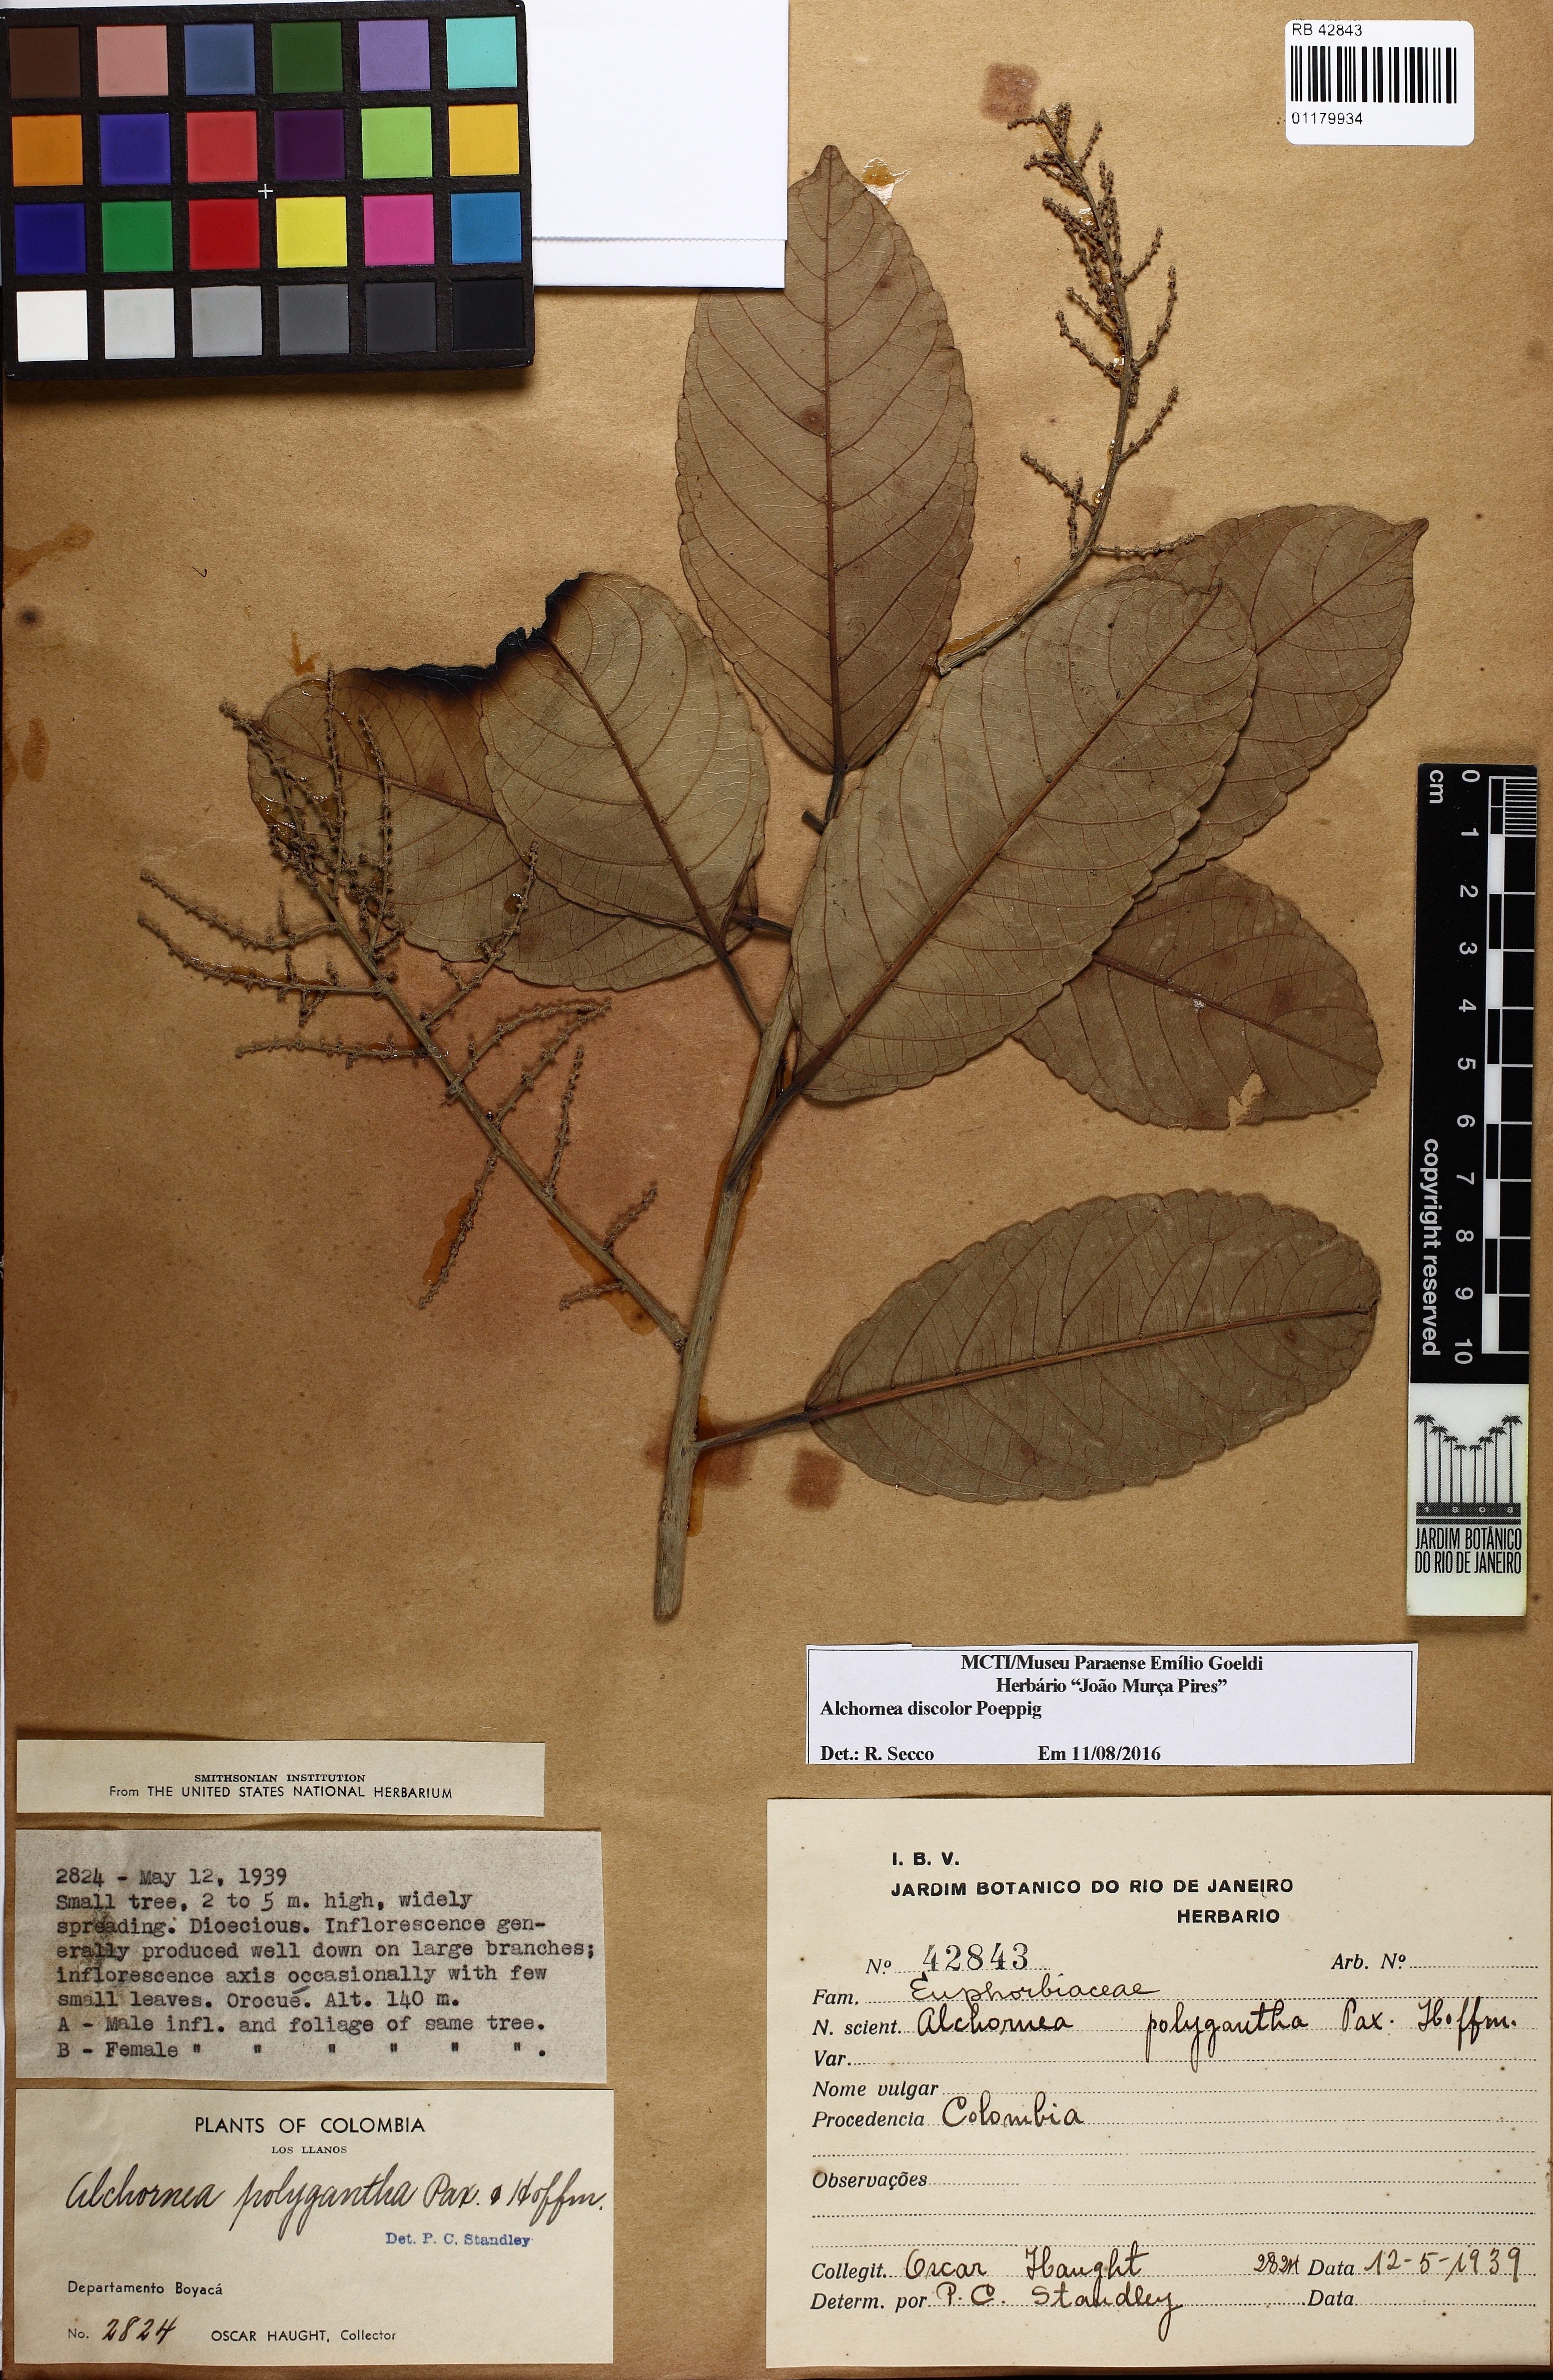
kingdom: Plantae
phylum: Tracheophyta
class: Magnoliopsida
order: Malpighiales
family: Euphorbiaceae
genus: Alchornea
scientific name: Alchornea discolor
